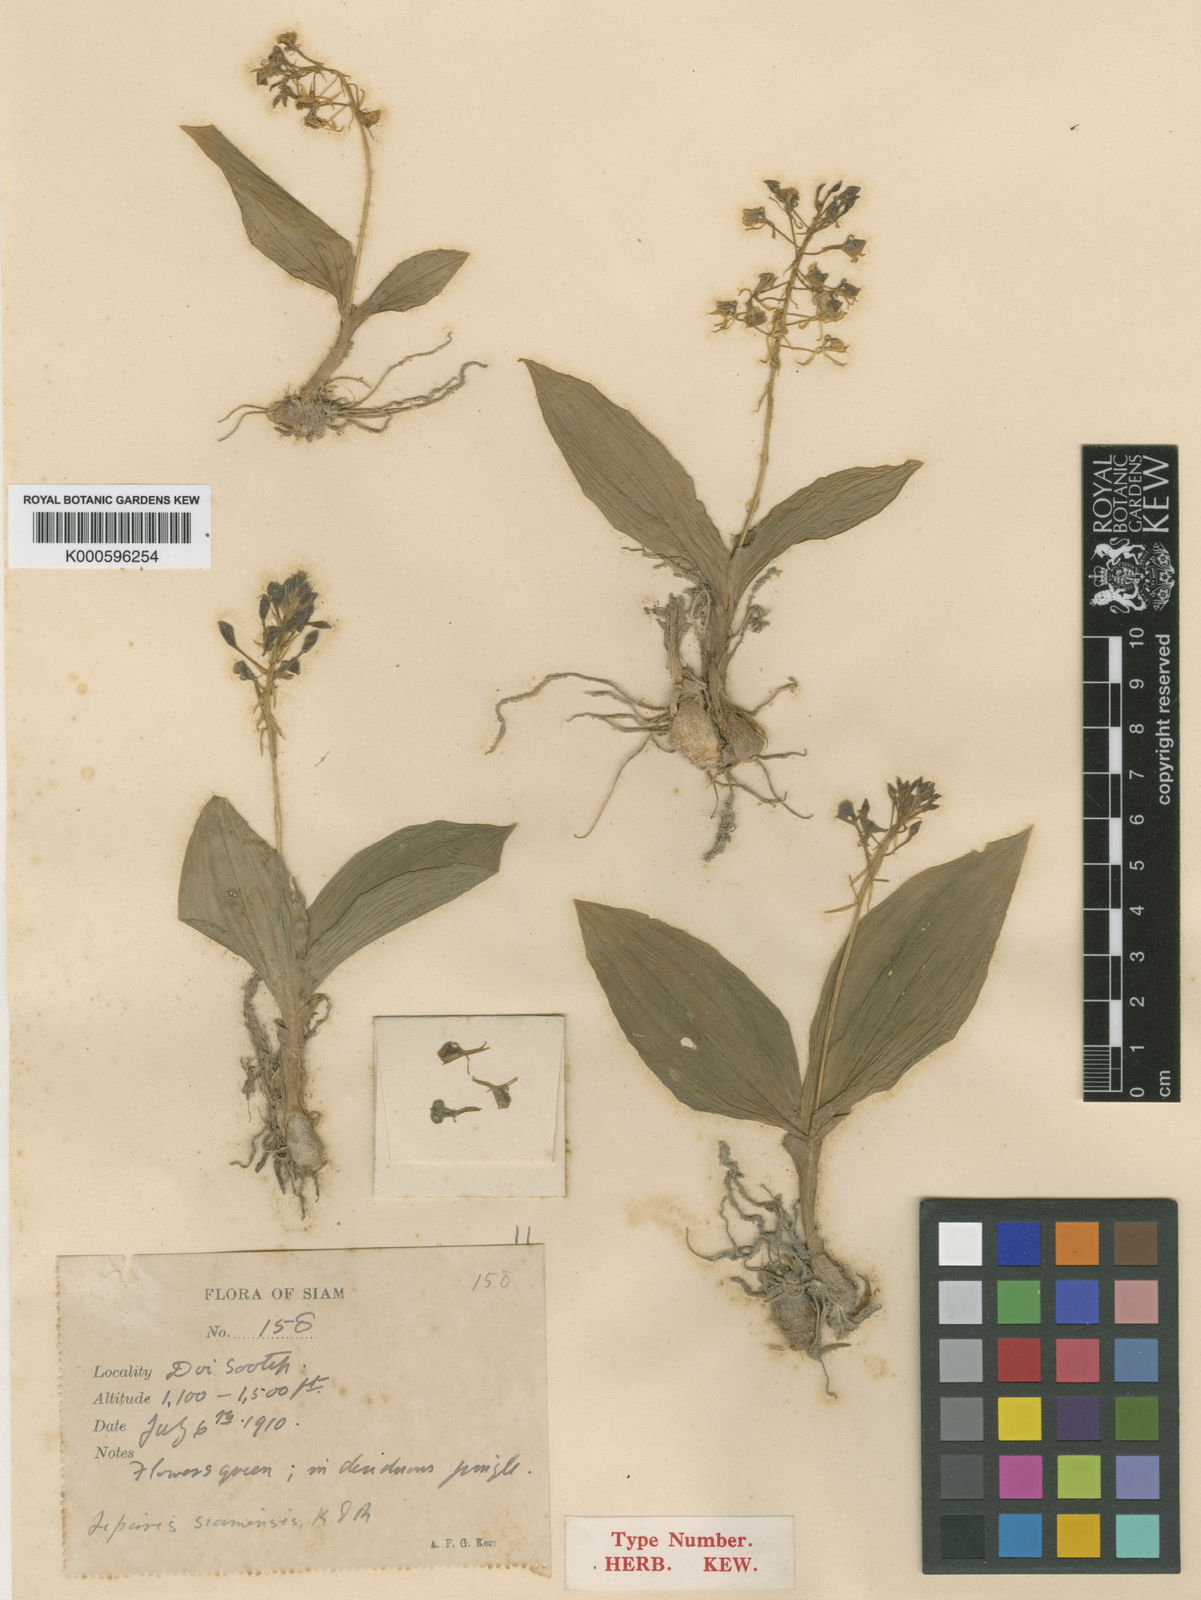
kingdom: Plantae
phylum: Tracheophyta
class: Liliopsida
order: Asparagales
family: Orchidaceae
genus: Liparis
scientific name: Liparis siamensis
